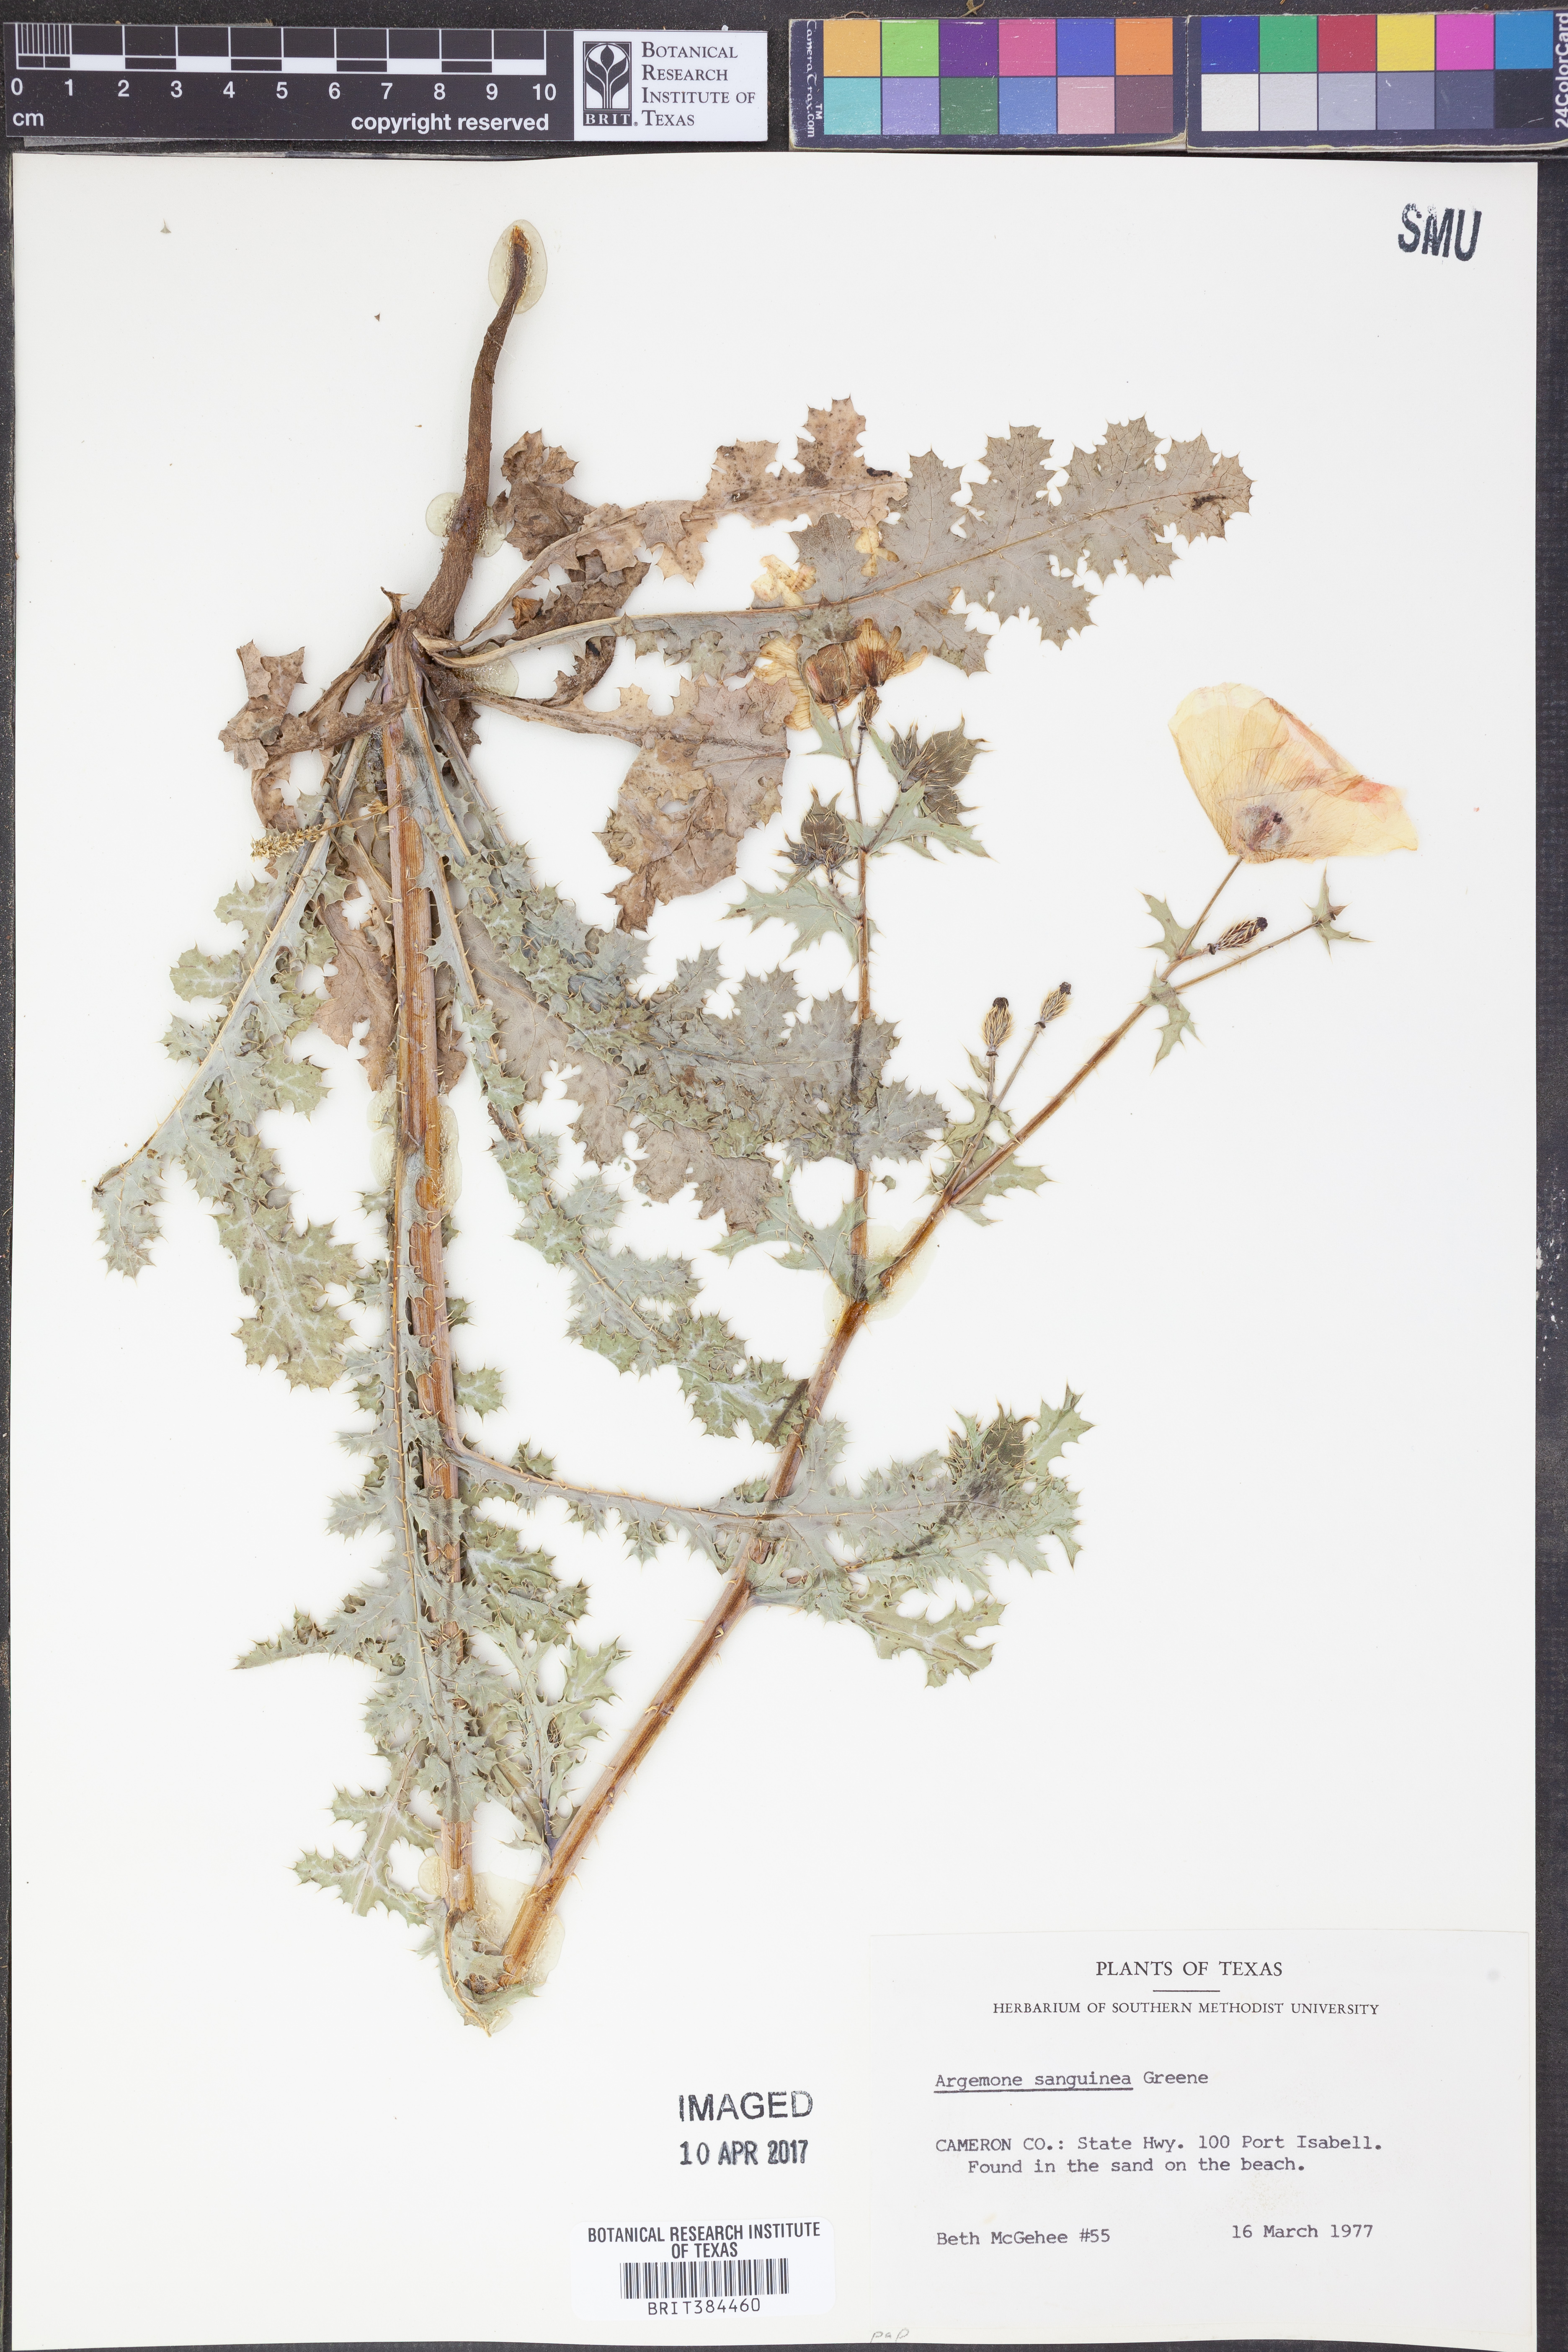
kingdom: Plantae
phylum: Tracheophyta
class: Magnoliopsida
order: Ranunculales
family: Papaveraceae
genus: Argemone
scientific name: Argemone sanguinea
